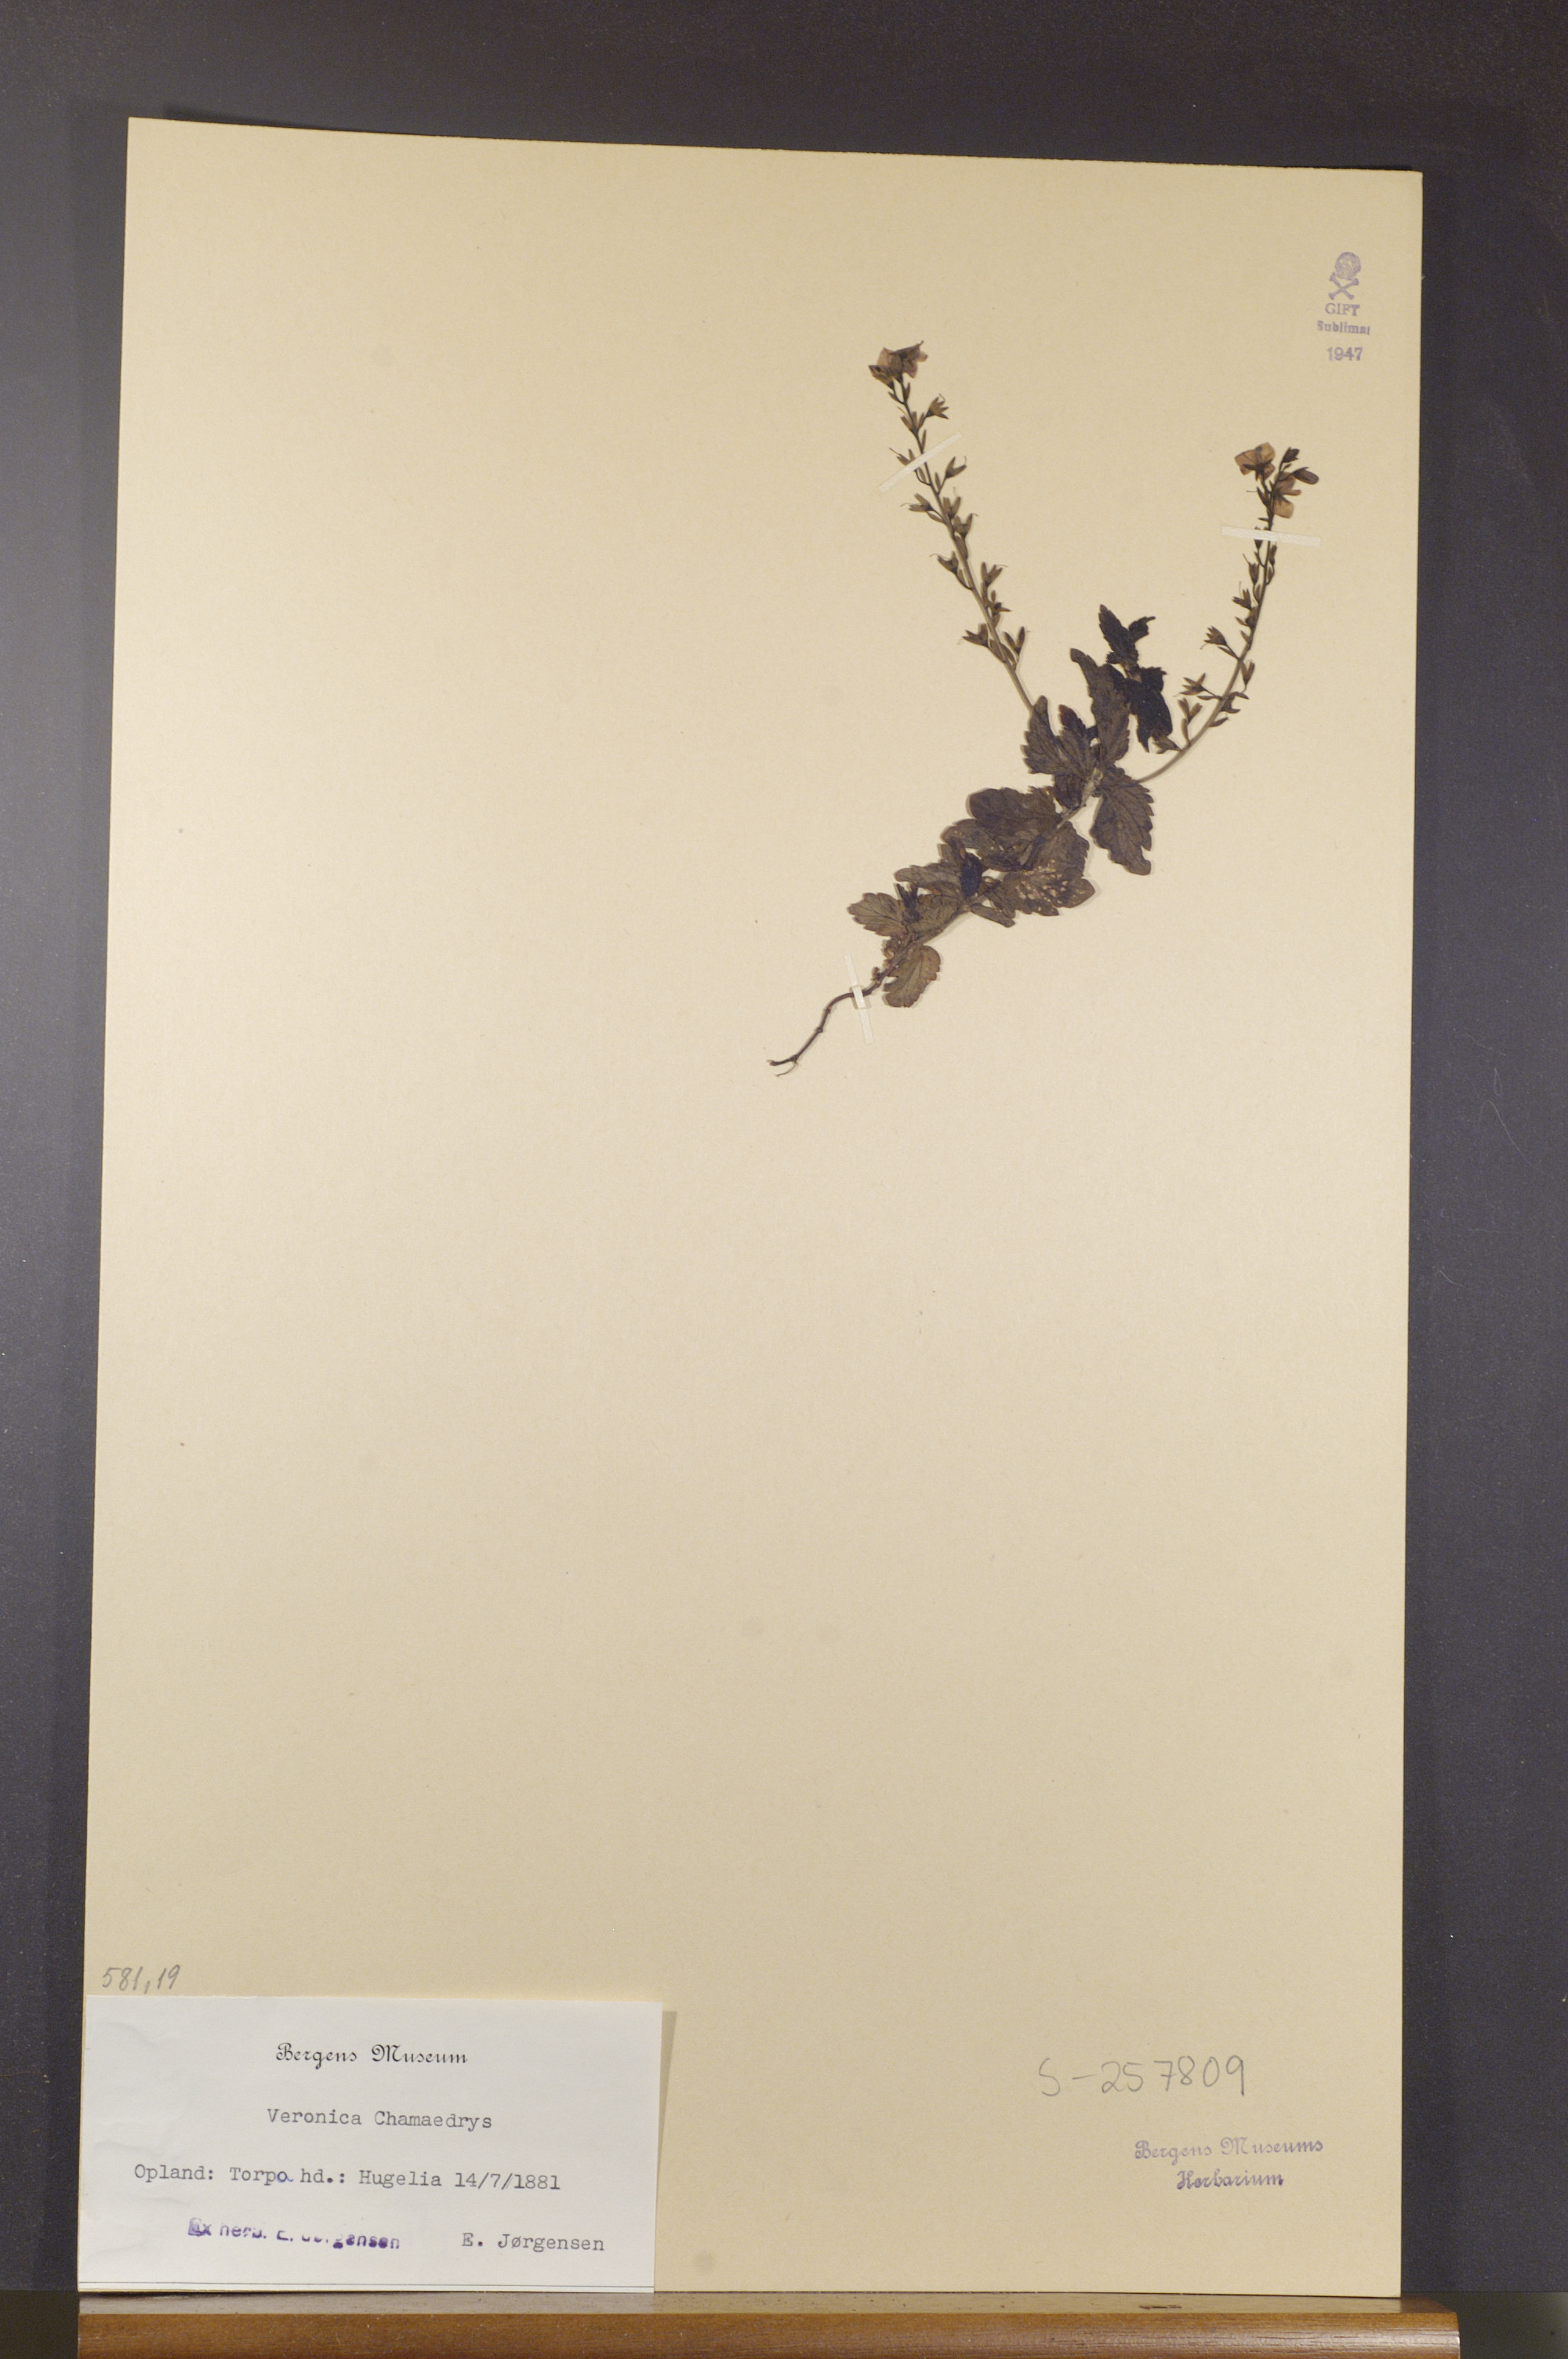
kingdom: Plantae
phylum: Tracheophyta
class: Magnoliopsida
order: Lamiales
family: Plantaginaceae
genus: Veronica
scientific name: Veronica chamaedrys
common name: Germander speedwell
